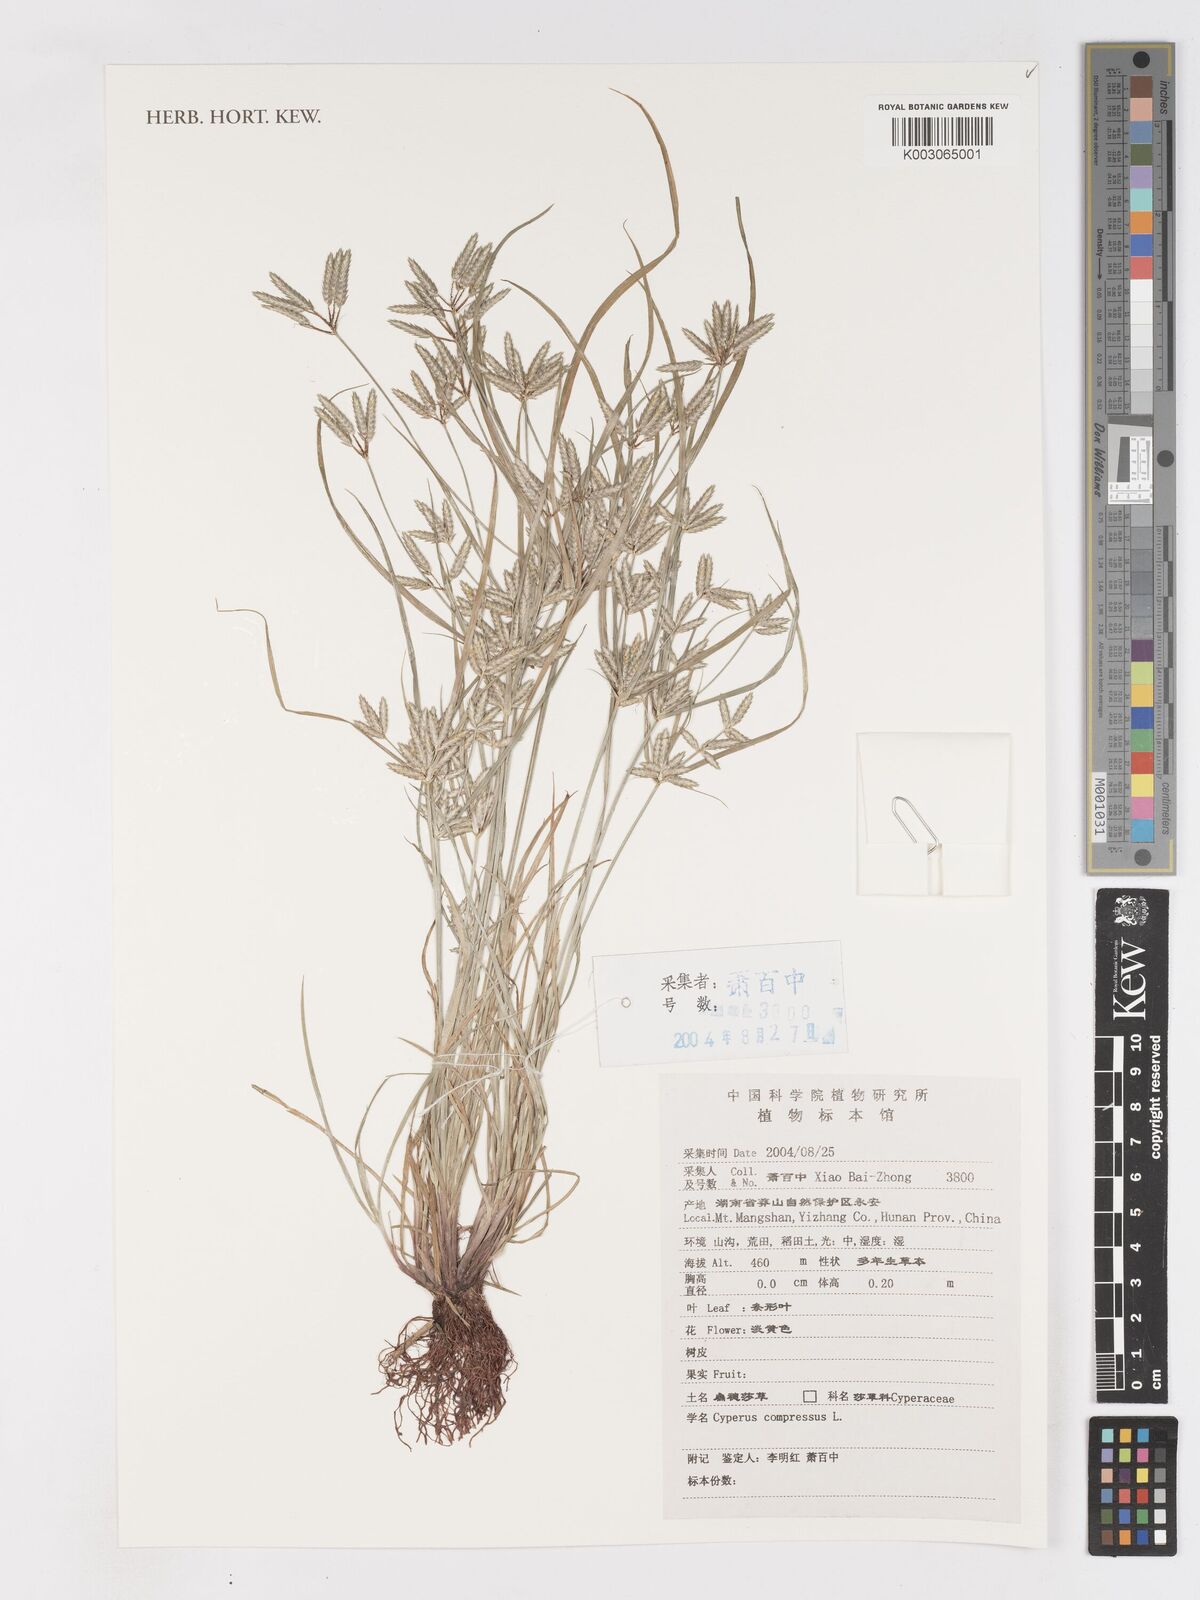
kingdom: Plantae
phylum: Tracheophyta
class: Liliopsida
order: Poales
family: Cyperaceae
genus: Cyperus
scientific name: Cyperus compressus
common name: Poorland flatsedge
